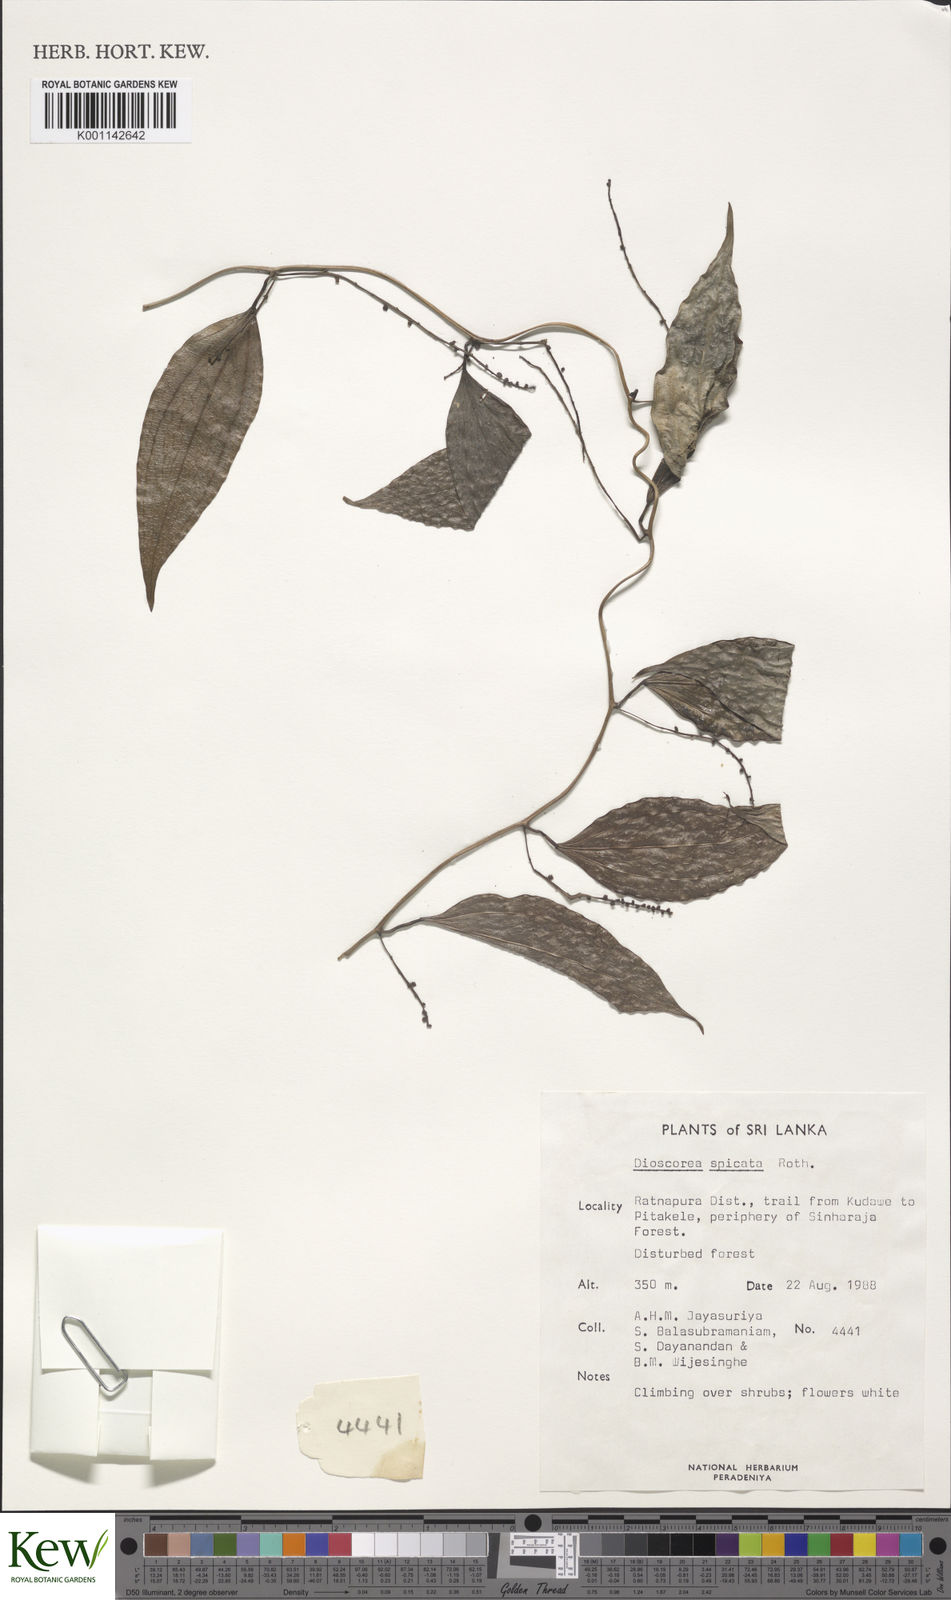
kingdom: Plantae
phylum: Tracheophyta
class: Liliopsida
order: Dioscoreales
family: Dioscoreaceae
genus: Dioscorea
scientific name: Dioscorea spicata
